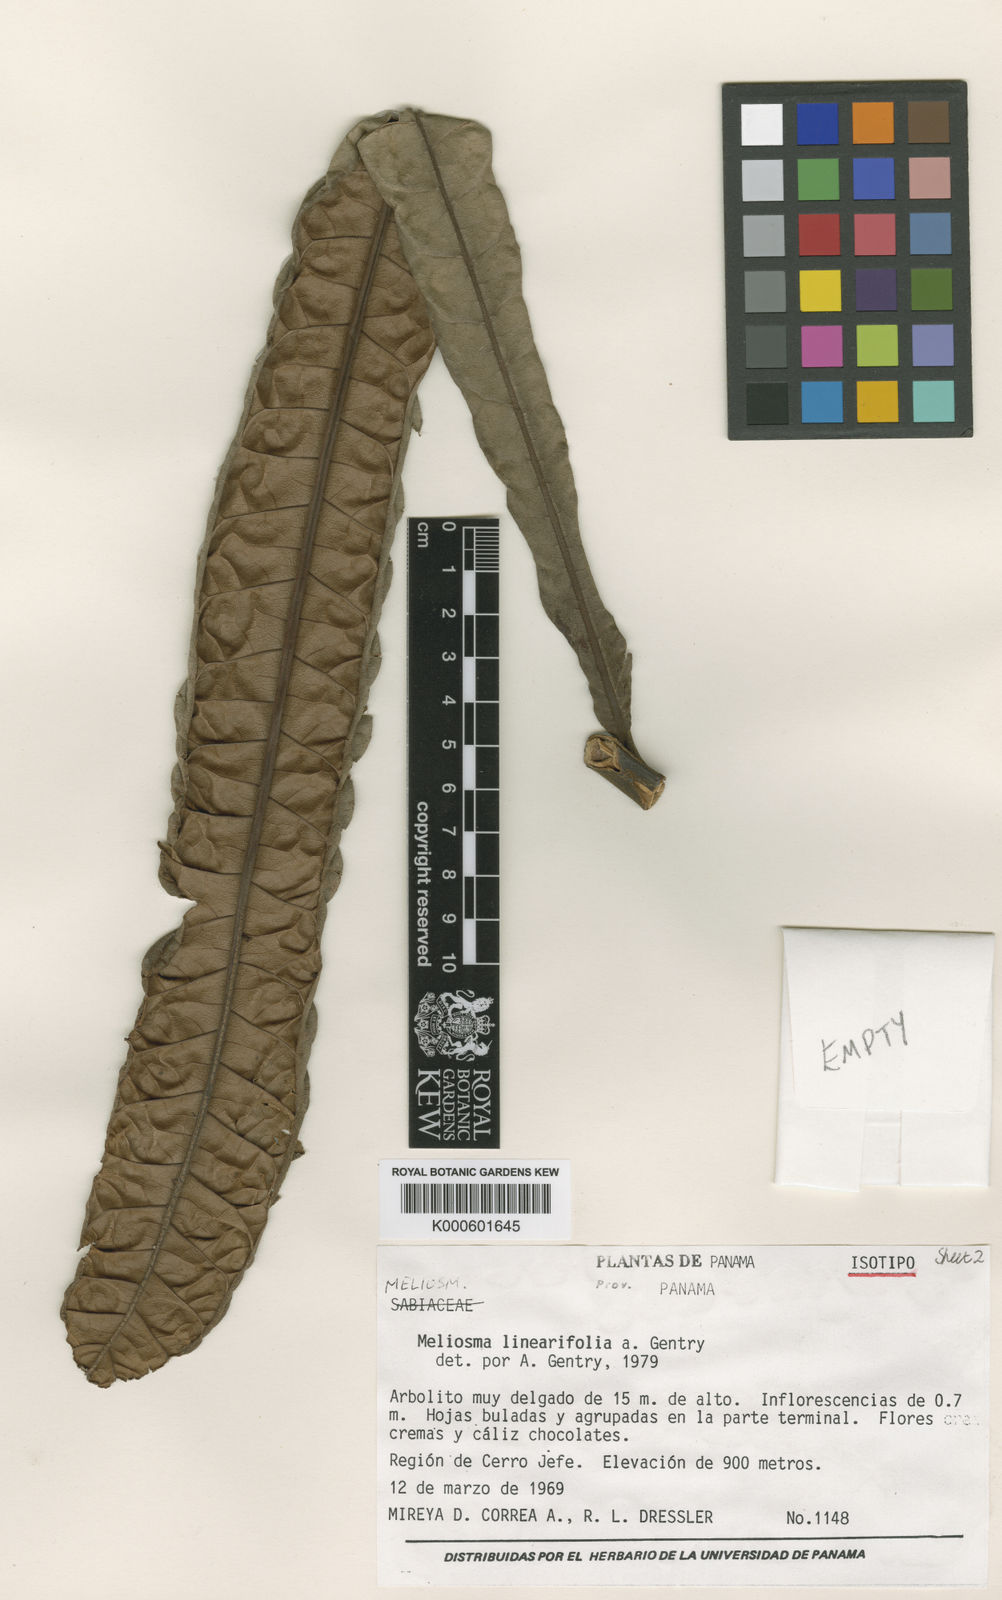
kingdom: Plantae
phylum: Tracheophyta
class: Magnoliopsida
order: Proteales
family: Sabiaceae
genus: Meliosma
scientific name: Meliosma linearifolia
